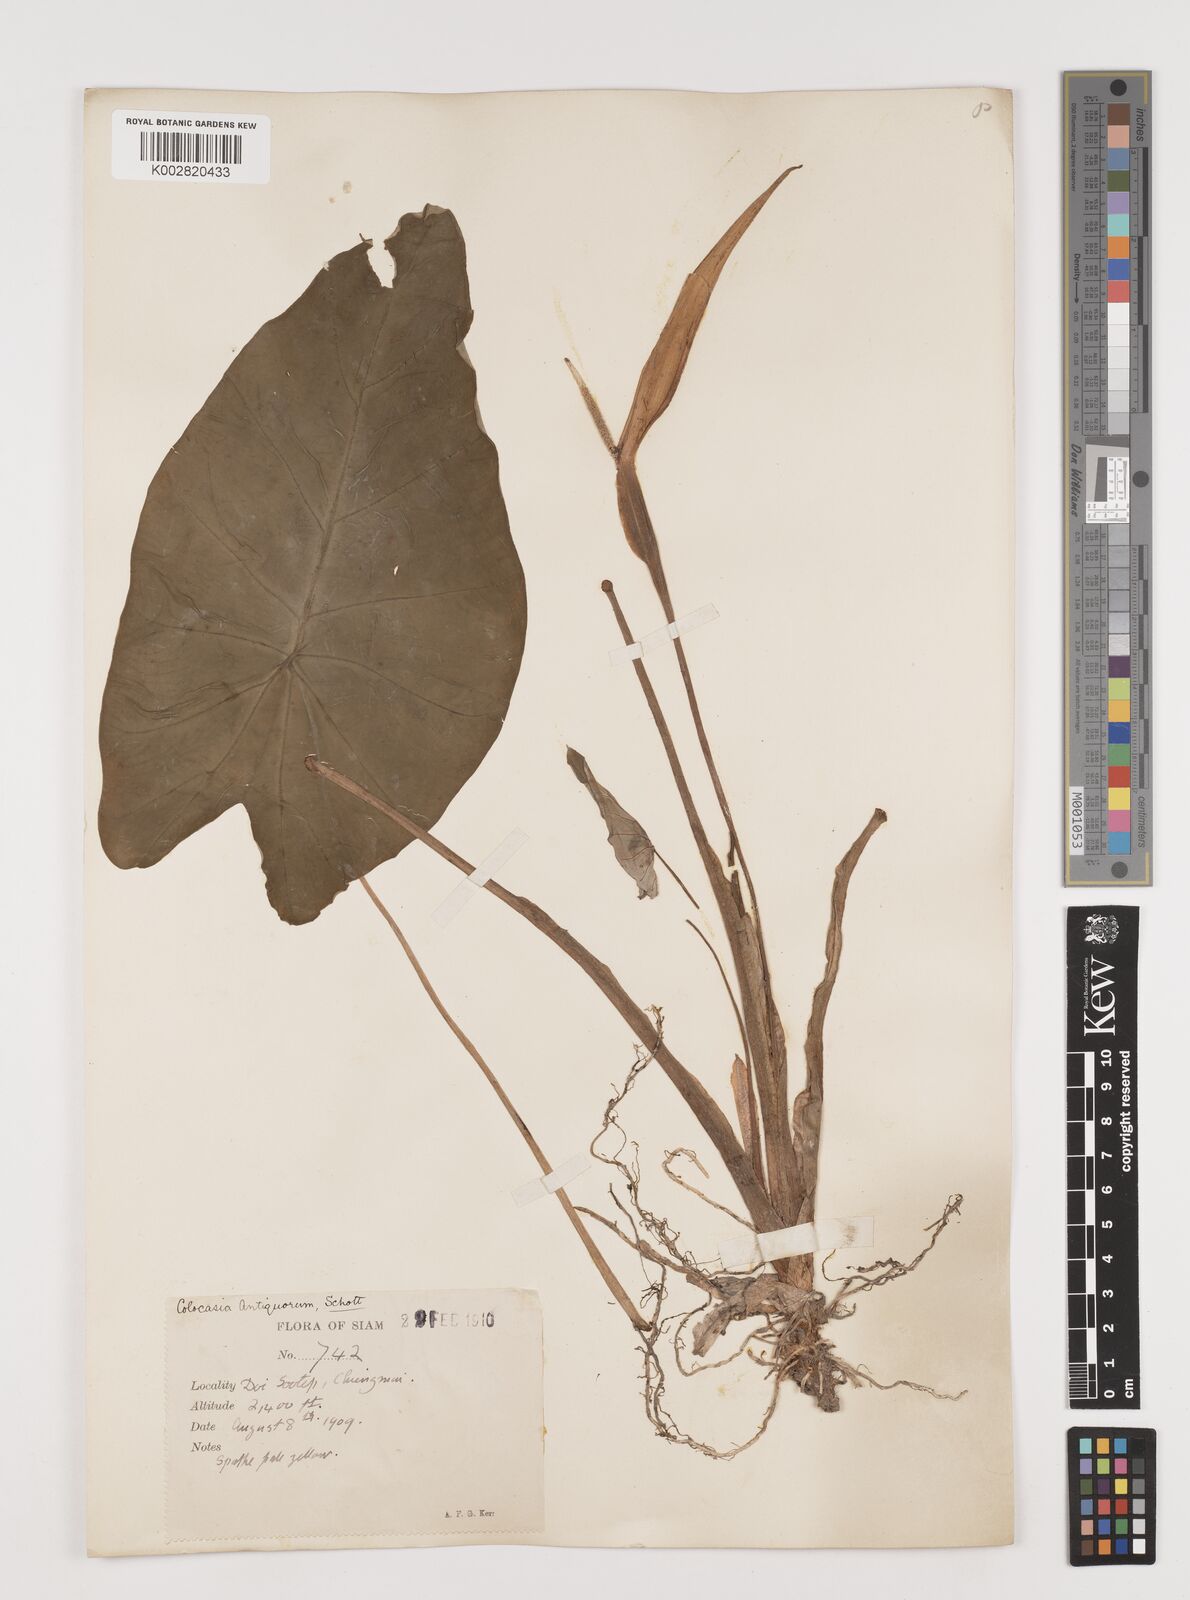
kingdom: Plantae
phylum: Tracheophyta
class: Liliopsida
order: Alismatales
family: Araceae
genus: Colocasia
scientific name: Colocasia esculenta
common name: Taro
